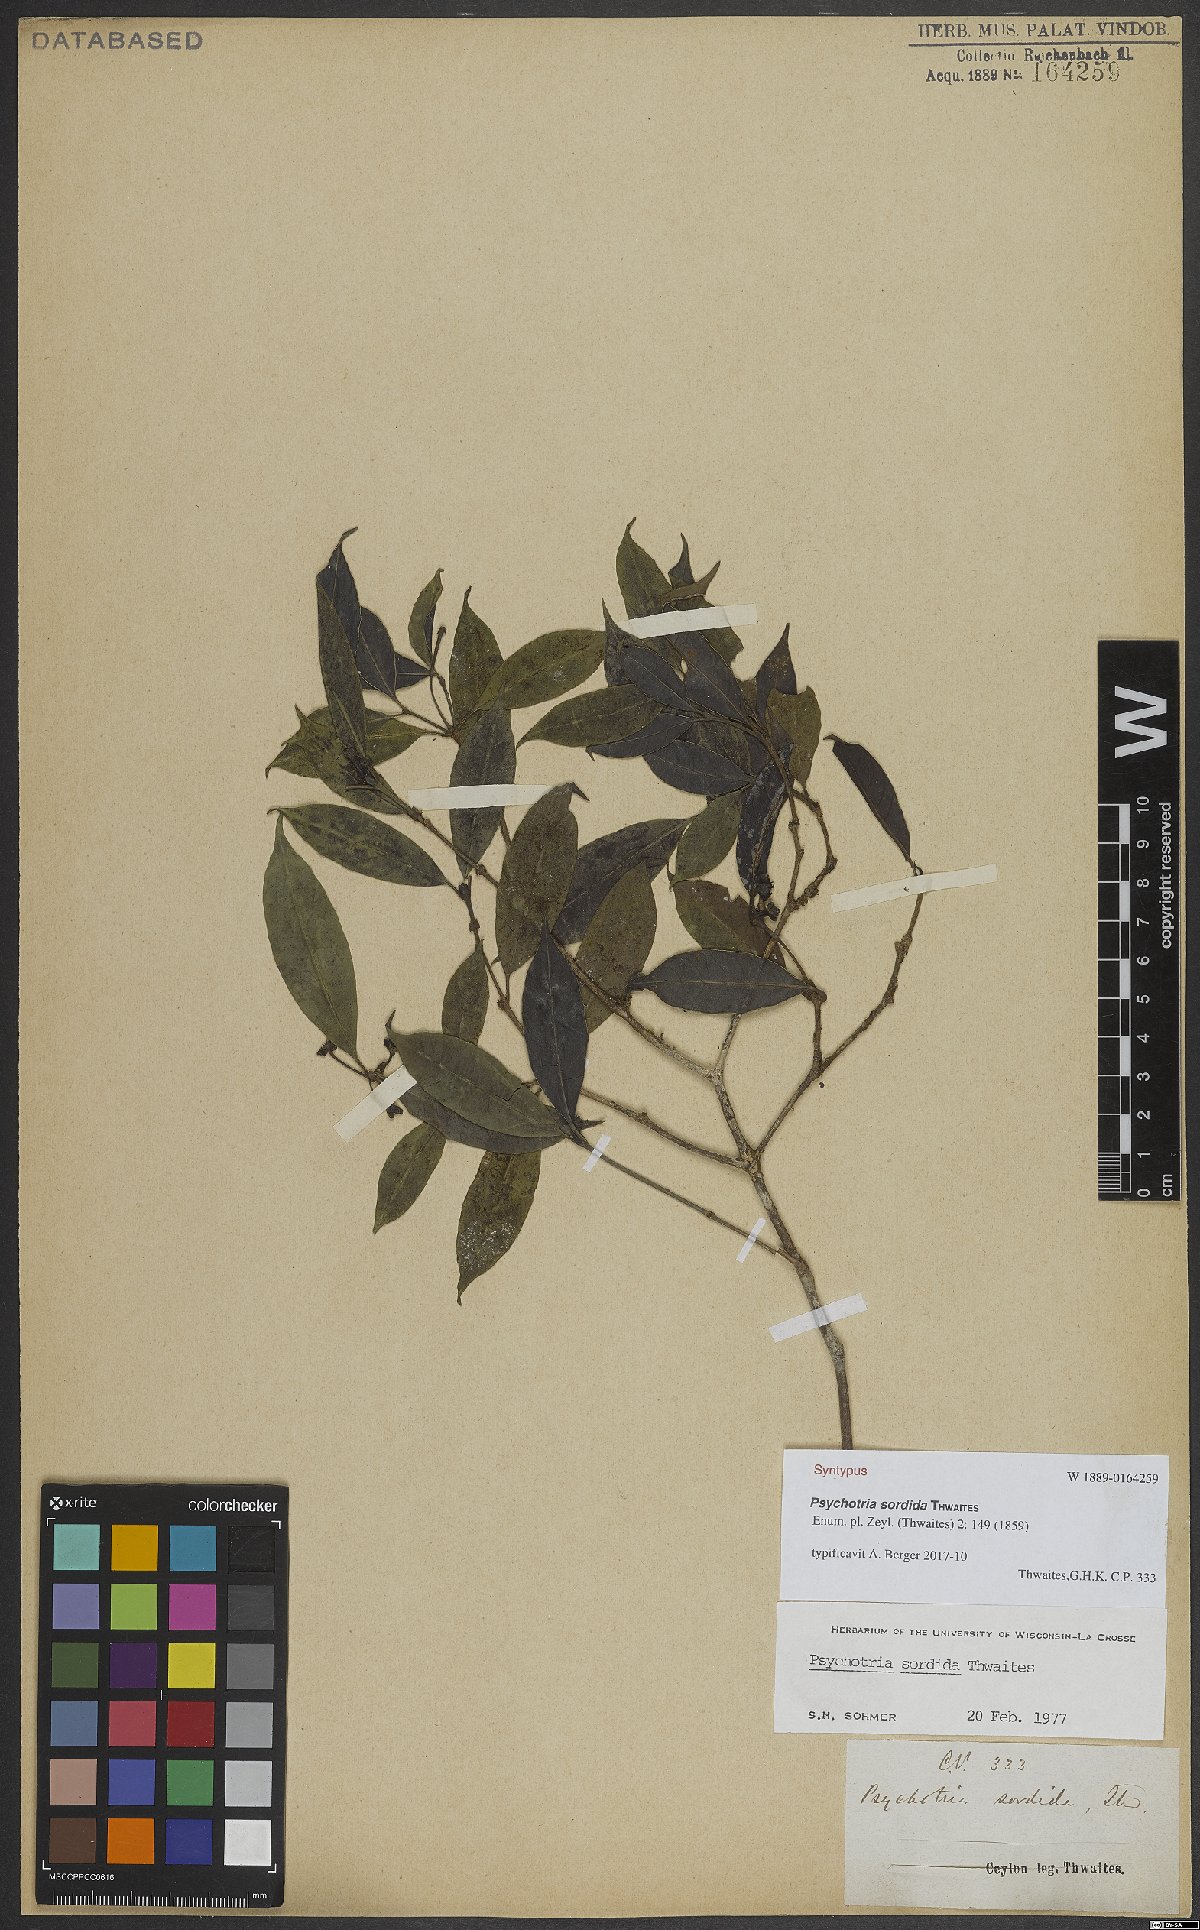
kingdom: Plantae
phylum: Tracheophyta
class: Magnoliopsida
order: Gentianales
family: Rubiaceae
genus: Psychotria
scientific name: Psychotria sordida
